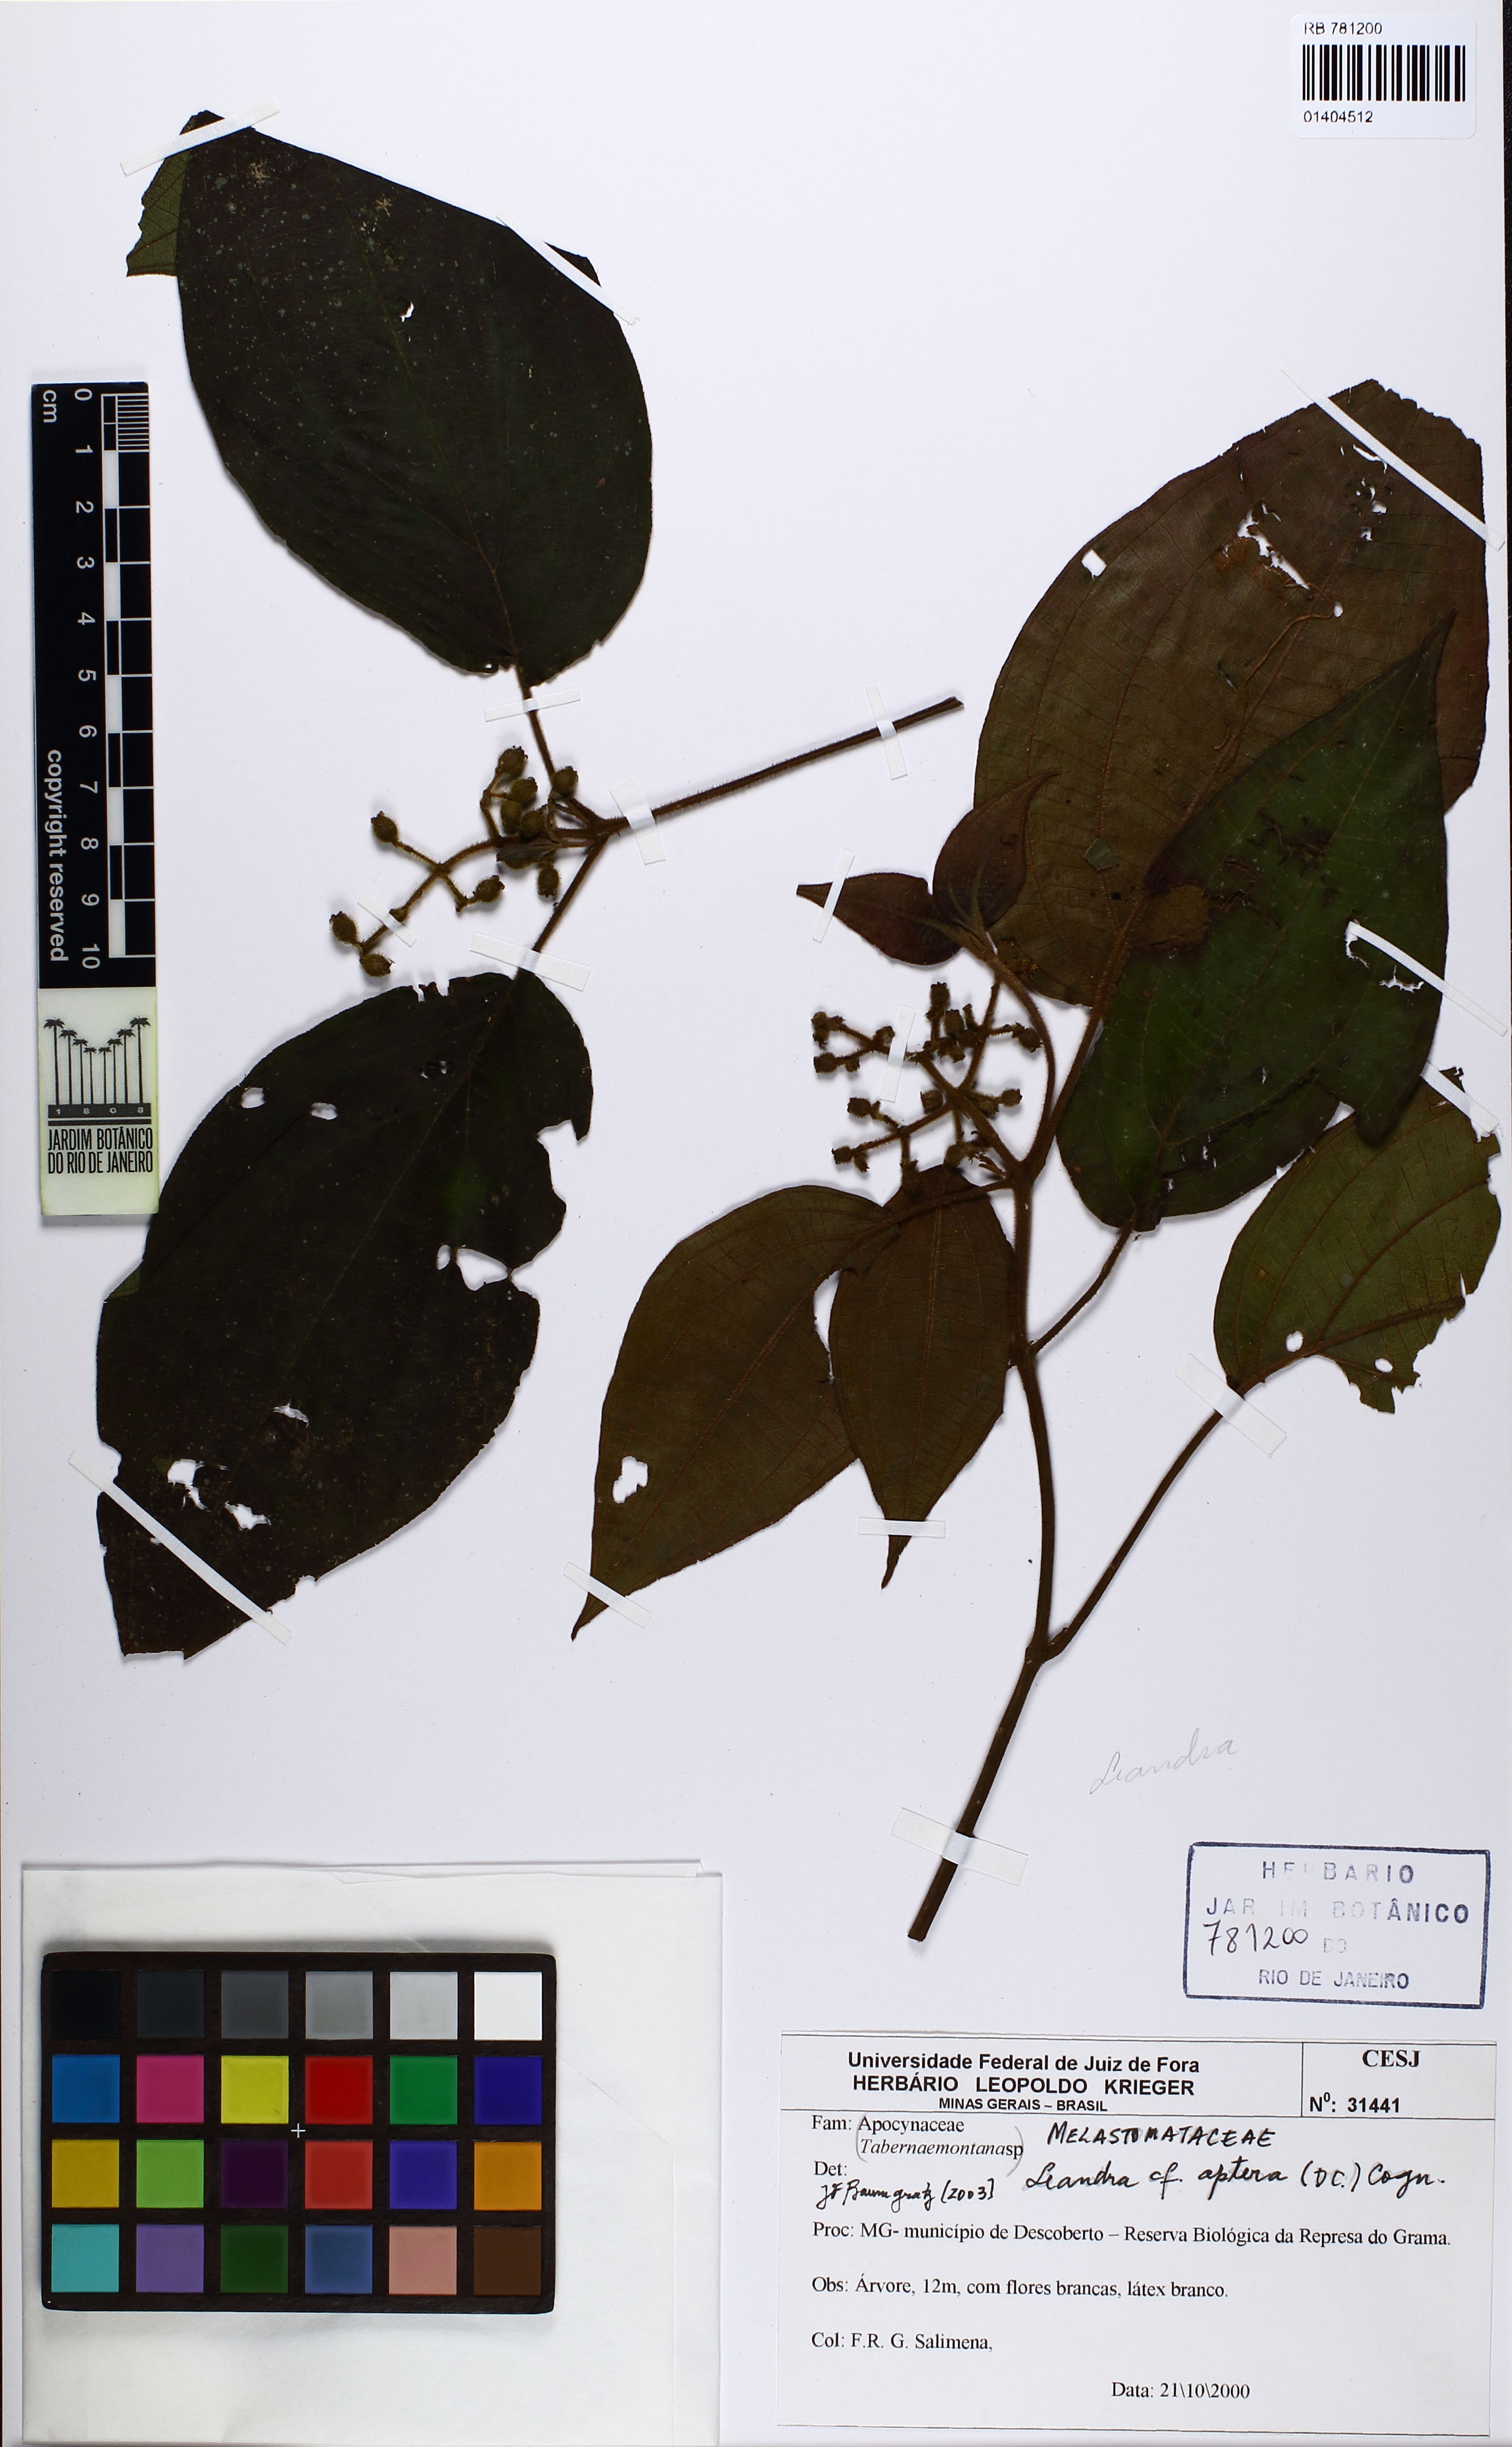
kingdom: Plantae
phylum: Tracheophyta
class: Magnoliopsida
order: Myrtales
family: Melastomataceae
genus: Miconia
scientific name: Miconia aptera
